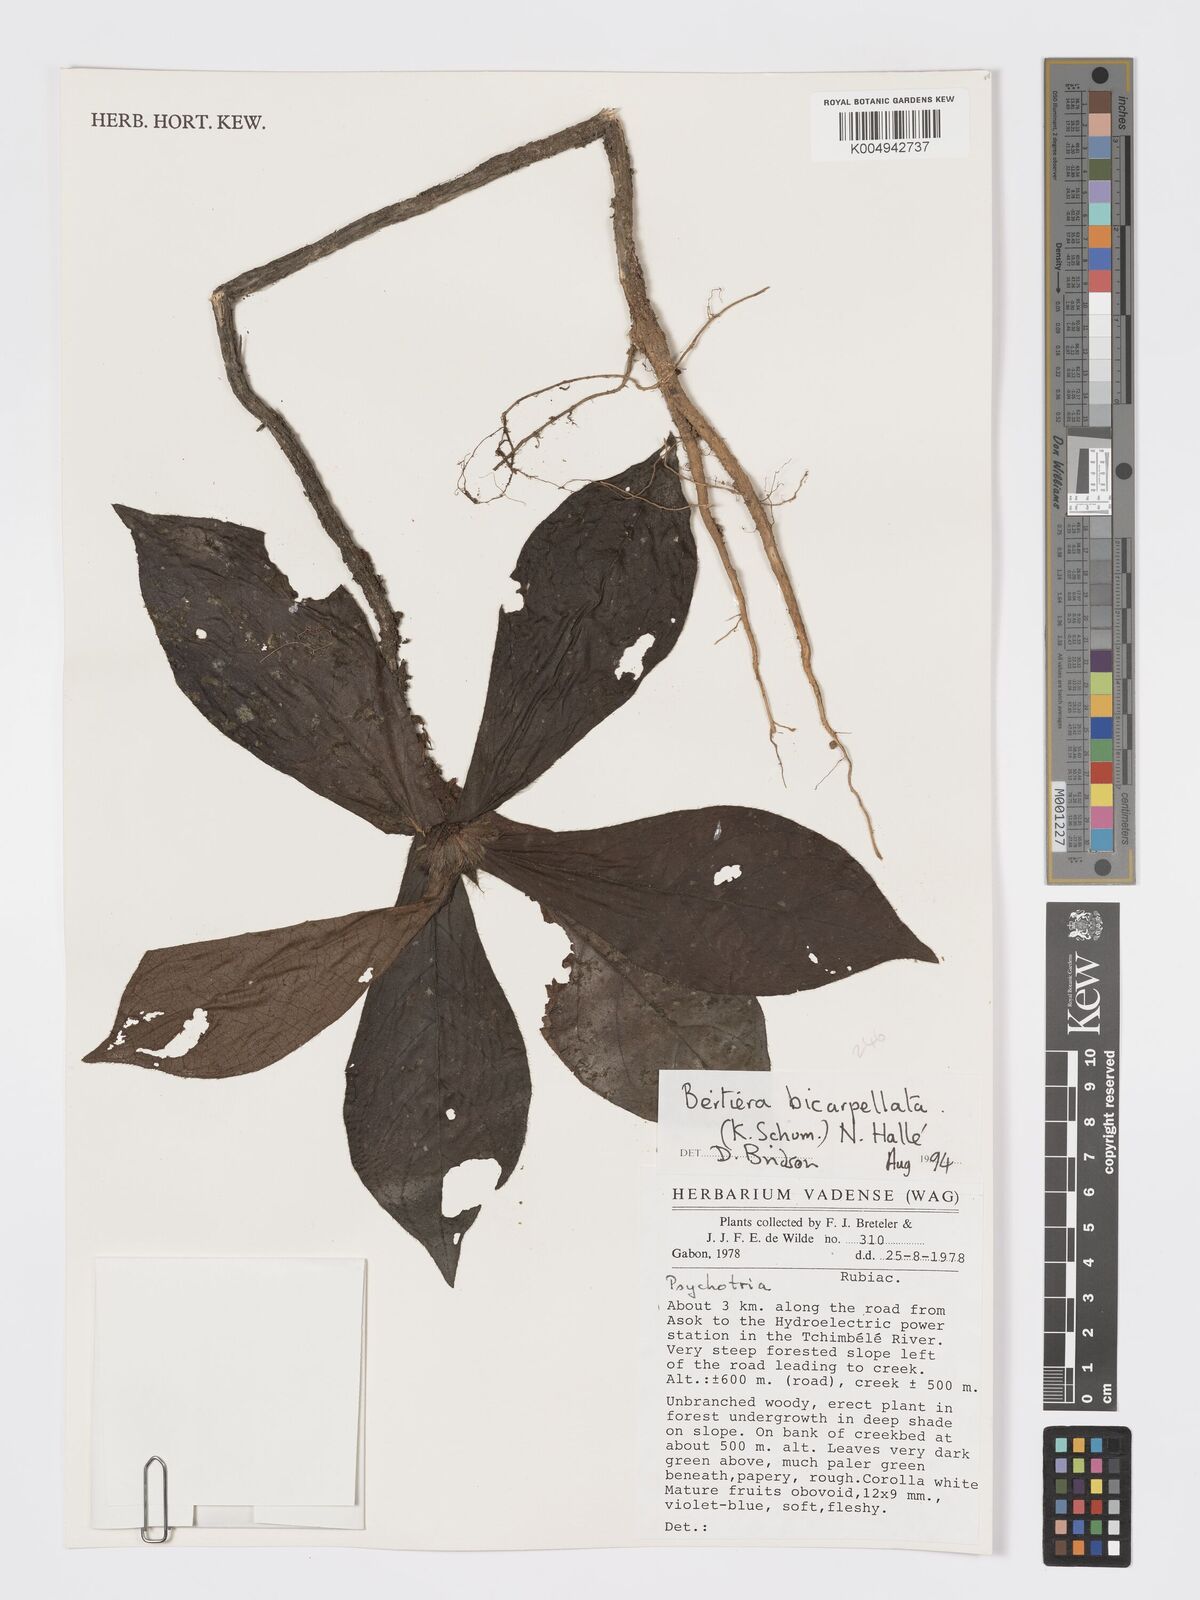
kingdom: Plantae
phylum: Tracheophyta
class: Magnoliopsida
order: Gentianales
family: Rubiaceae
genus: Bertiera
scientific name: Bertiera bicarpellata
